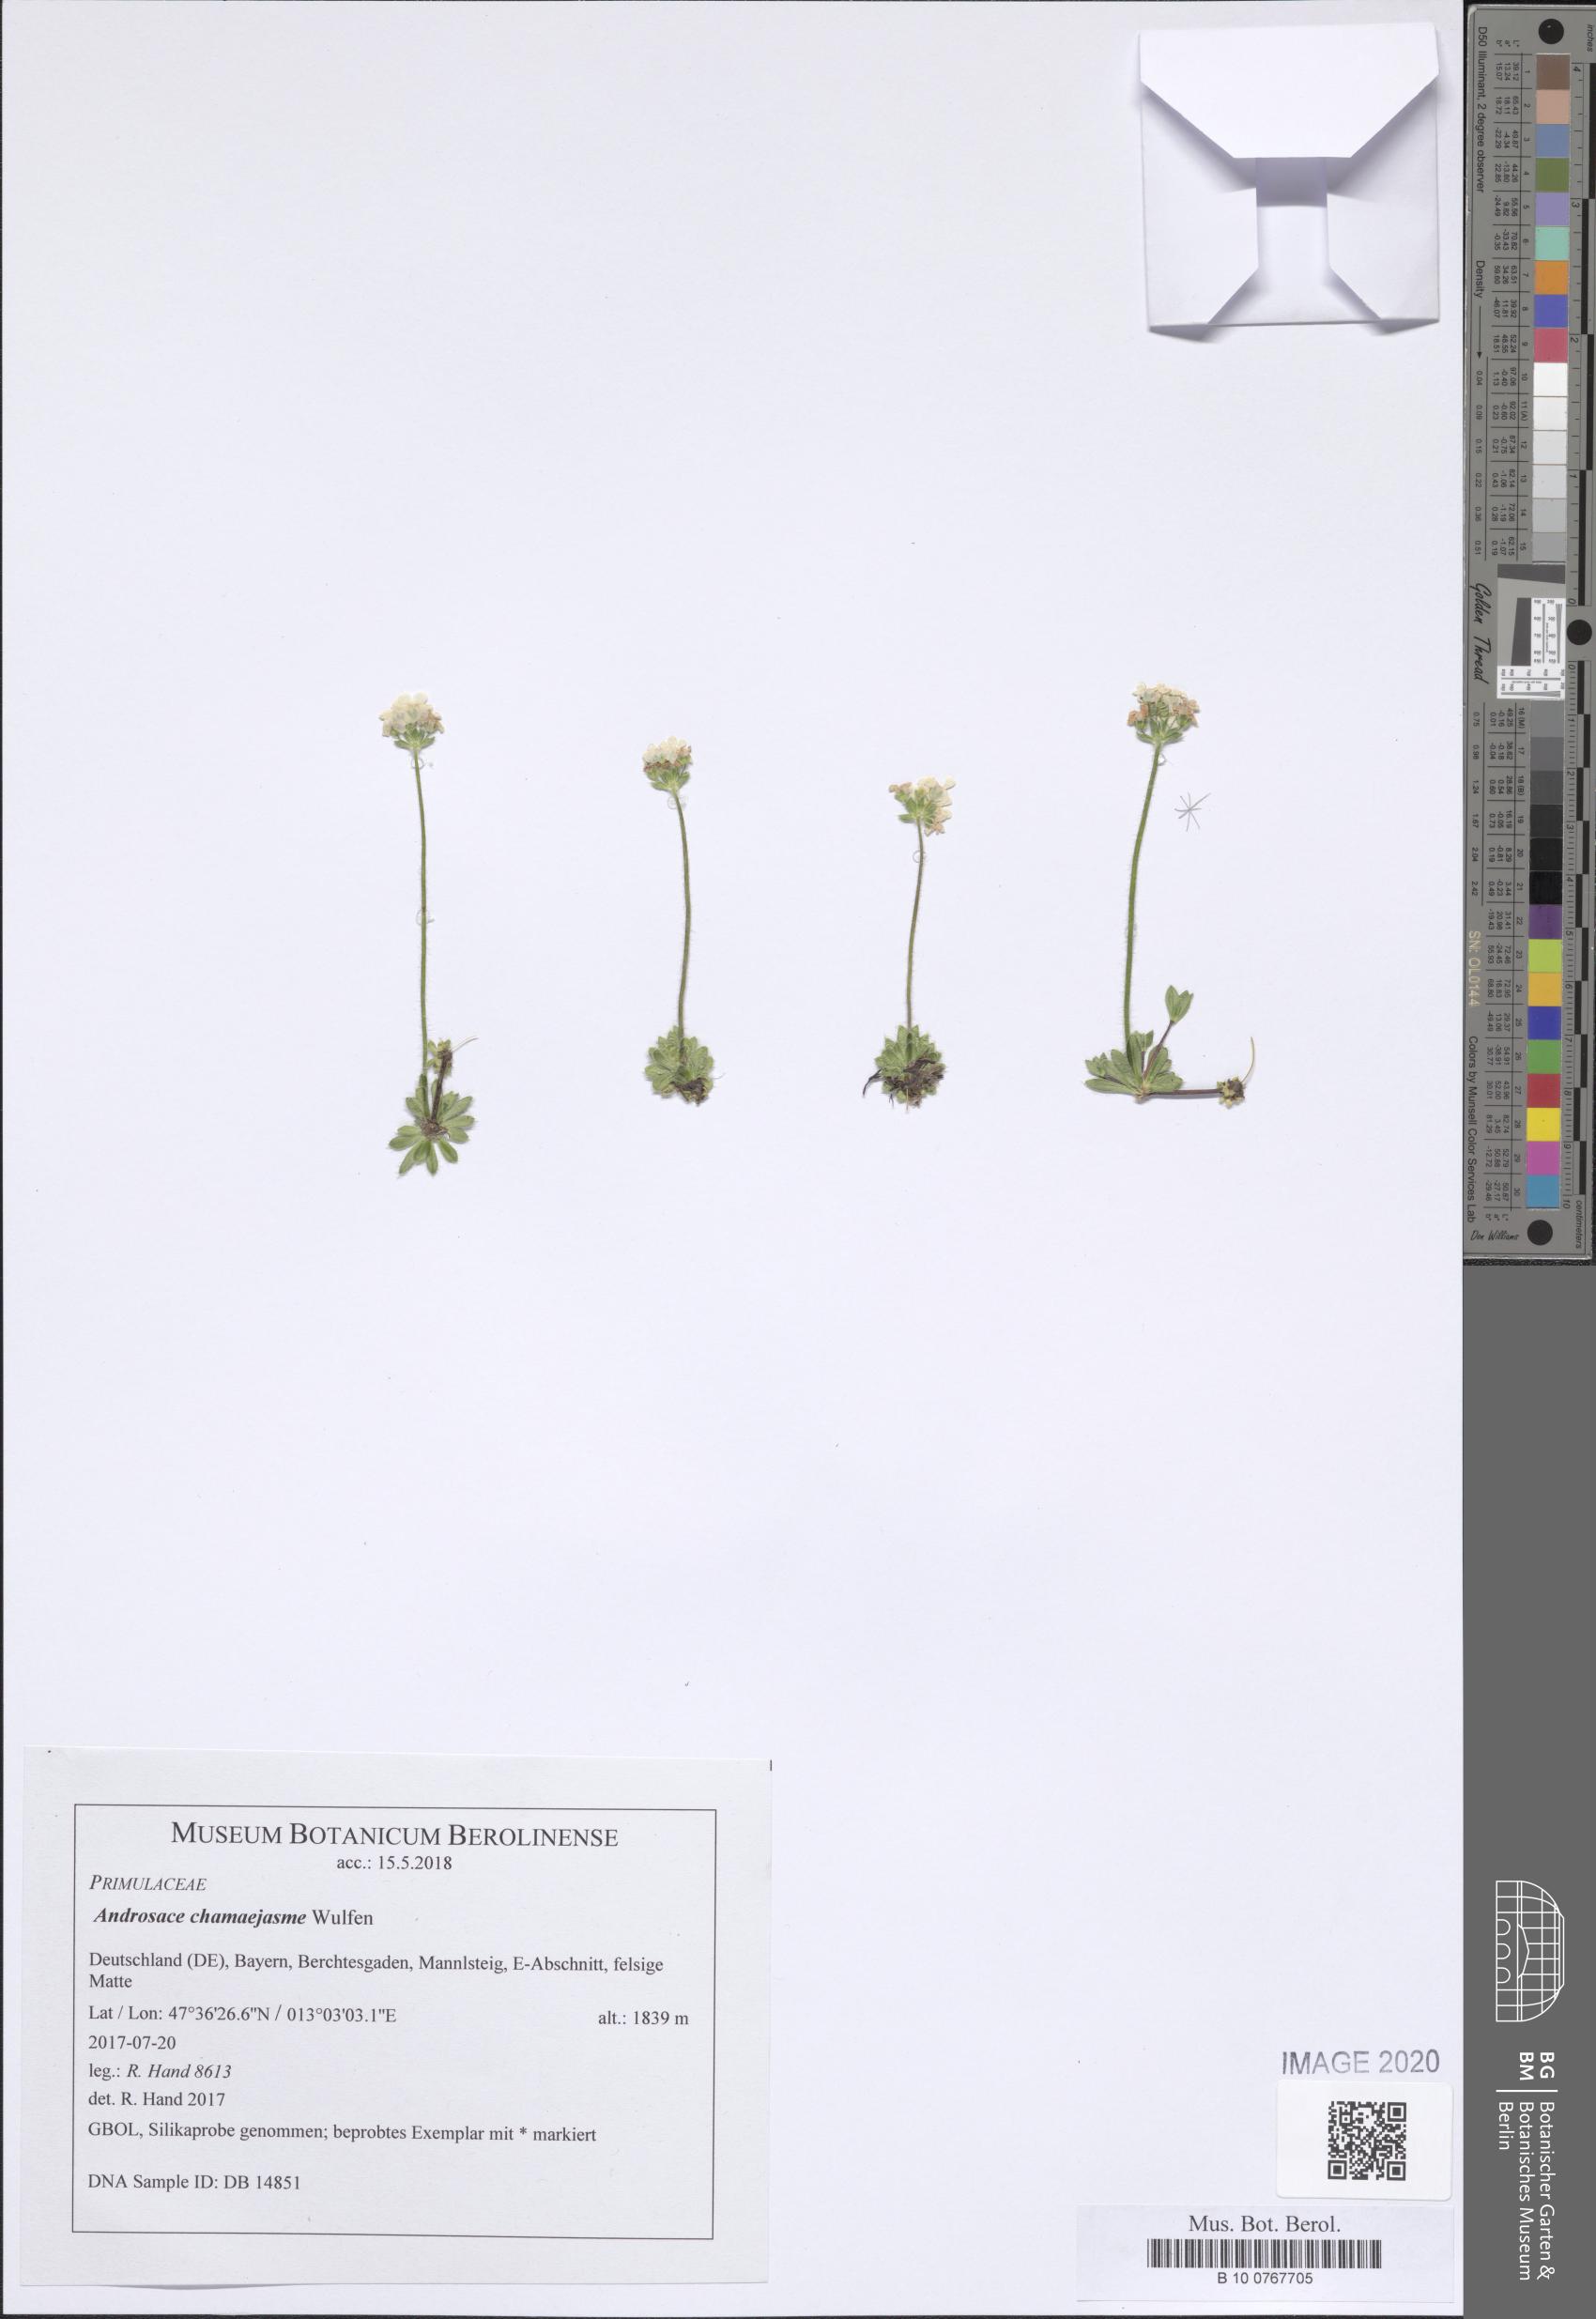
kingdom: Plantae
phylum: Tracheophyta
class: Magnoliopsida
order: Ericales
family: Primulaceae
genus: Androsace
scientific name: Androsace chamaejasme
